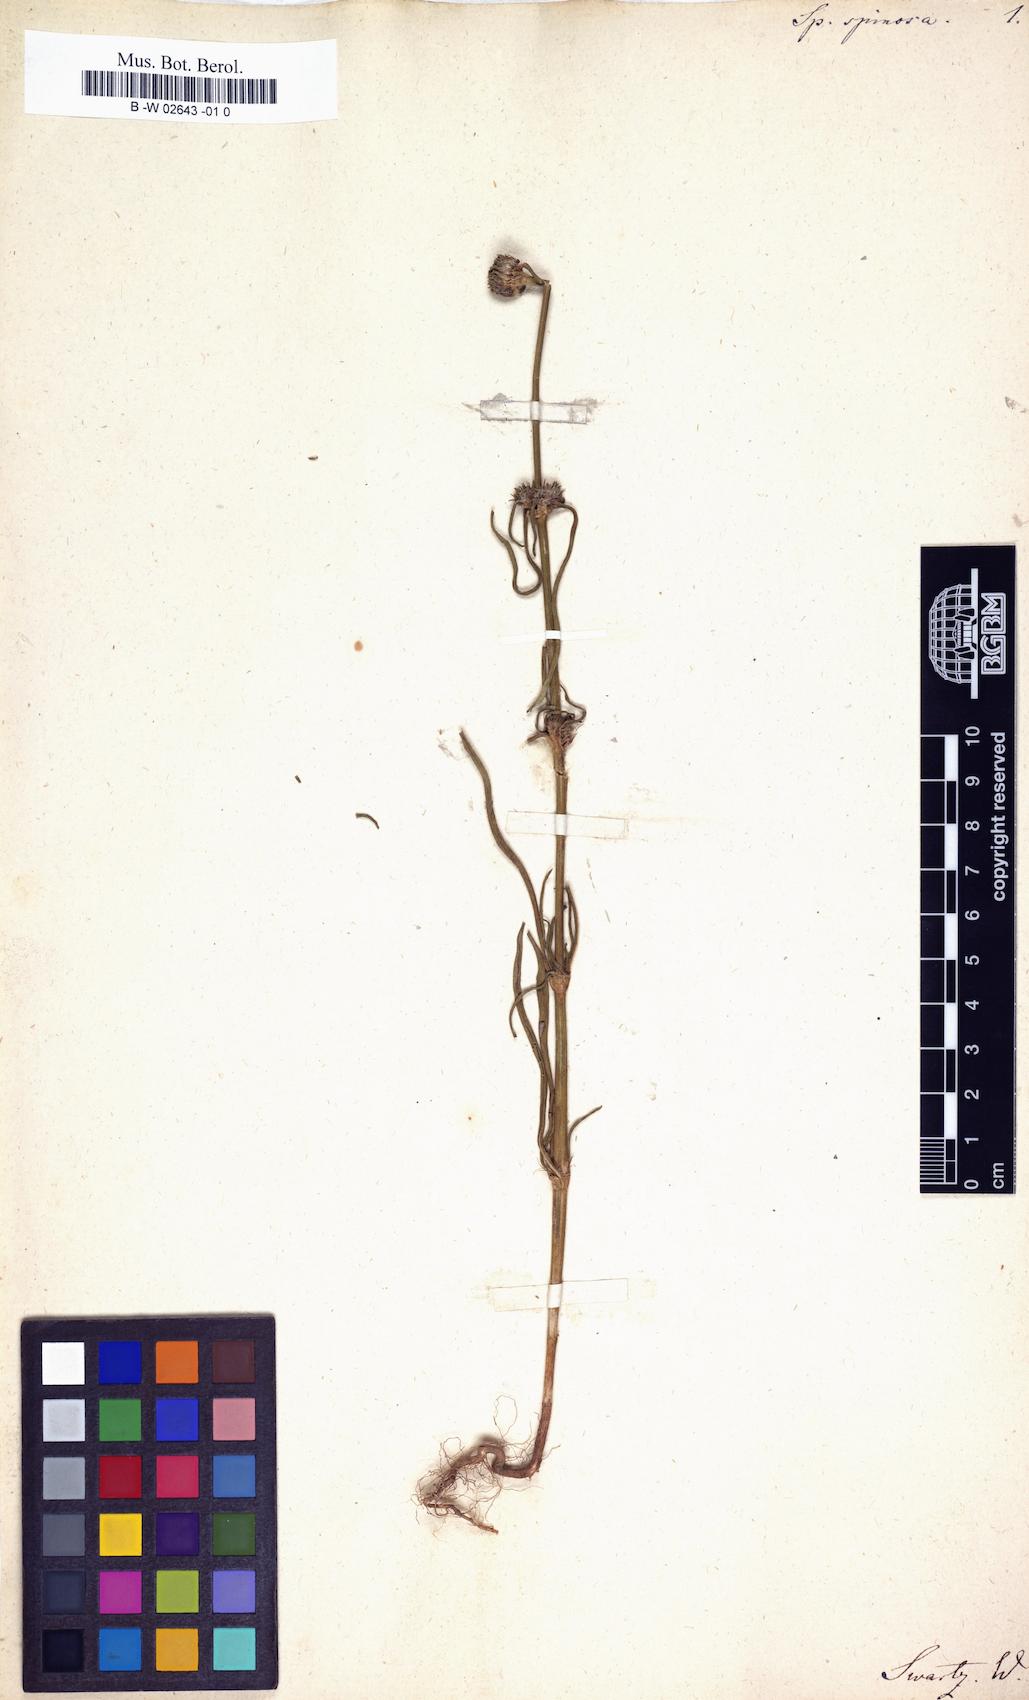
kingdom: Plantae
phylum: Tracheophyta
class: Magnoliopsida
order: Gentianales
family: Rubiaceae
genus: Spermacoce
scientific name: Spermacoce densiflora
